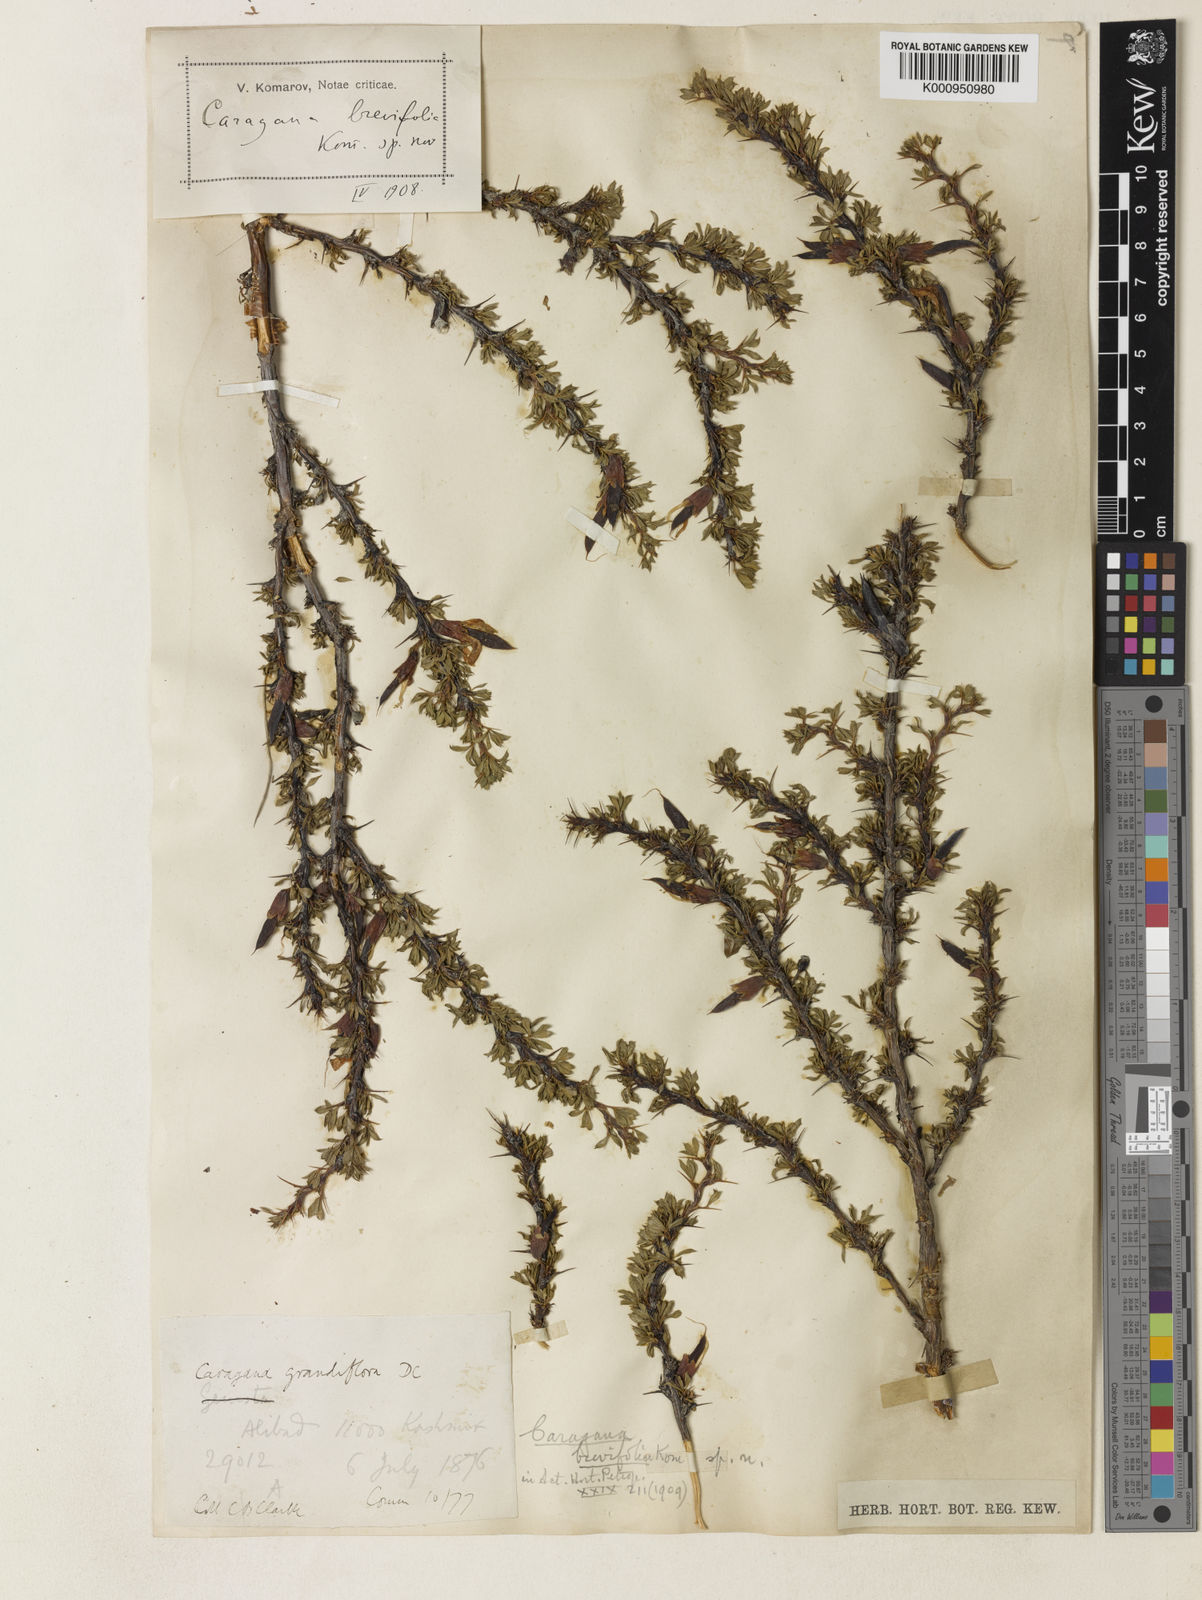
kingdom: Plantae
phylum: Tracheophyta
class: Magnoliopsida
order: Fabales
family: Fabaceae
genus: Caragana
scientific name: Caragana brevifolia
